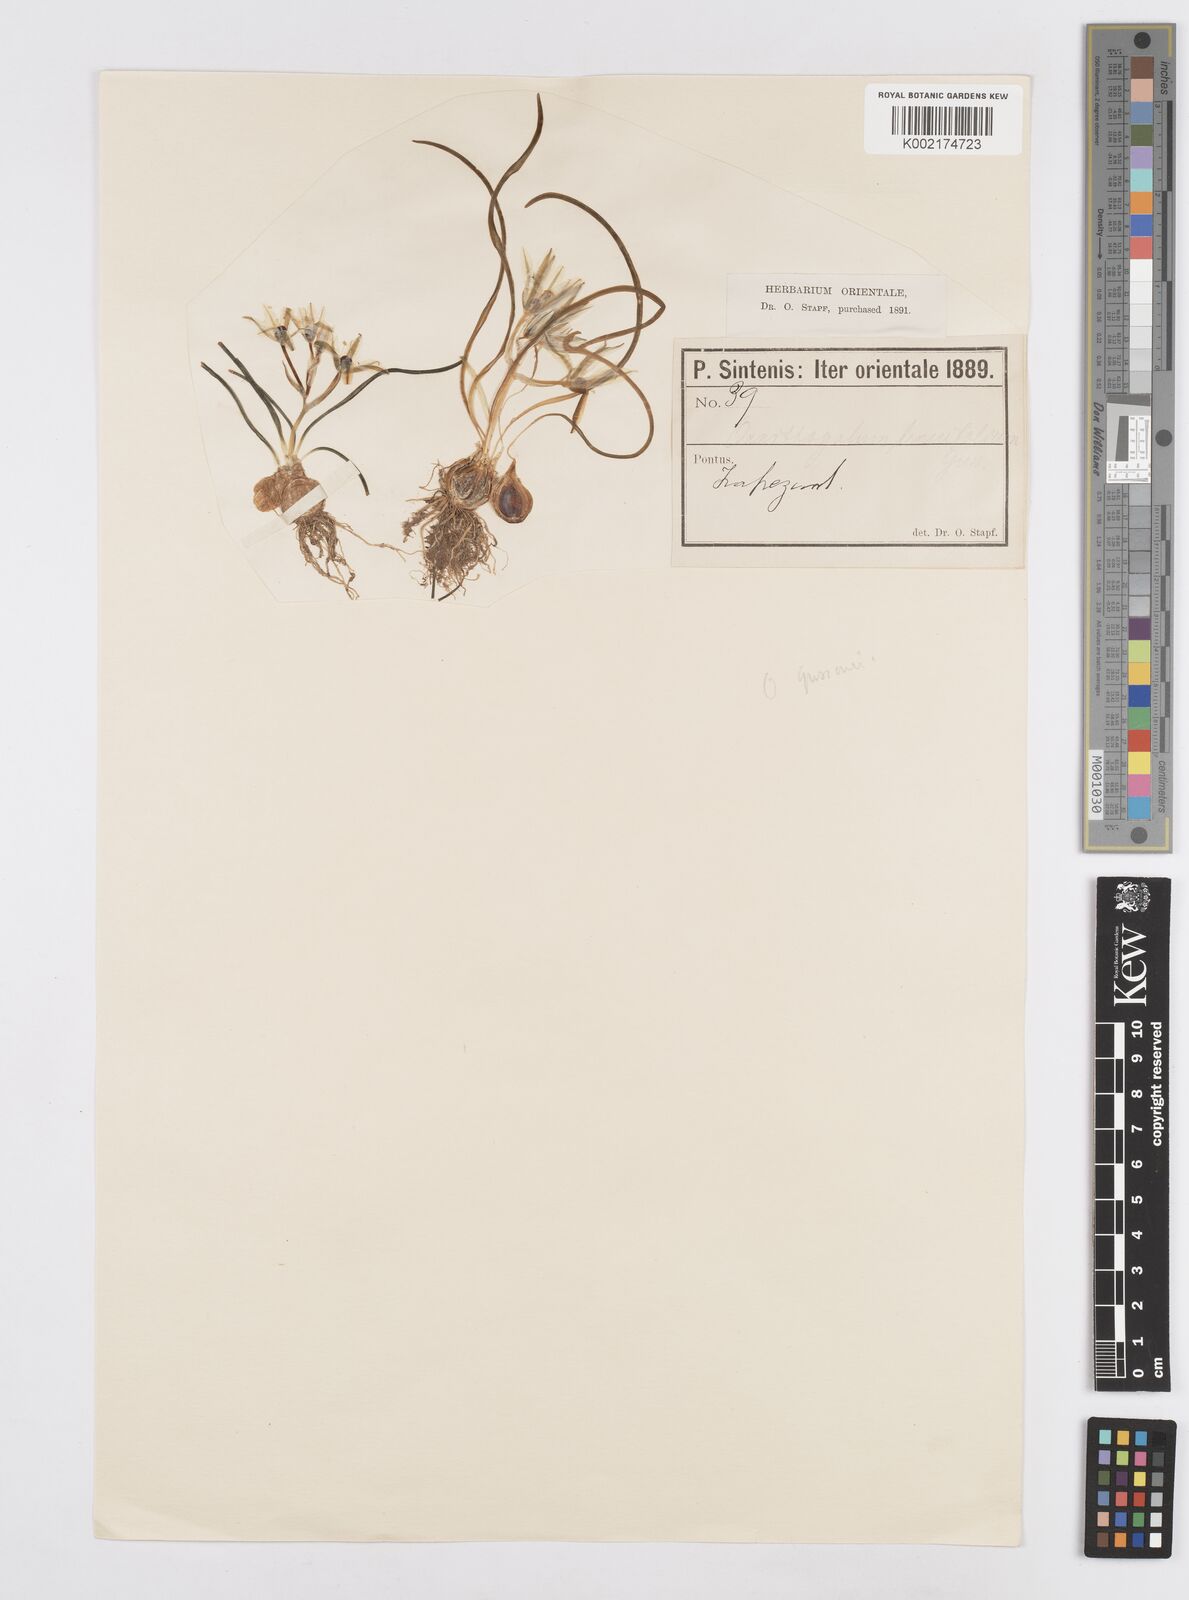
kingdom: Plantae
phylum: Tracheophyta
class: Liliopsida
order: Asparagales
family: Asparagaceae
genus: Ornithogalum
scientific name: Ornithogalum
